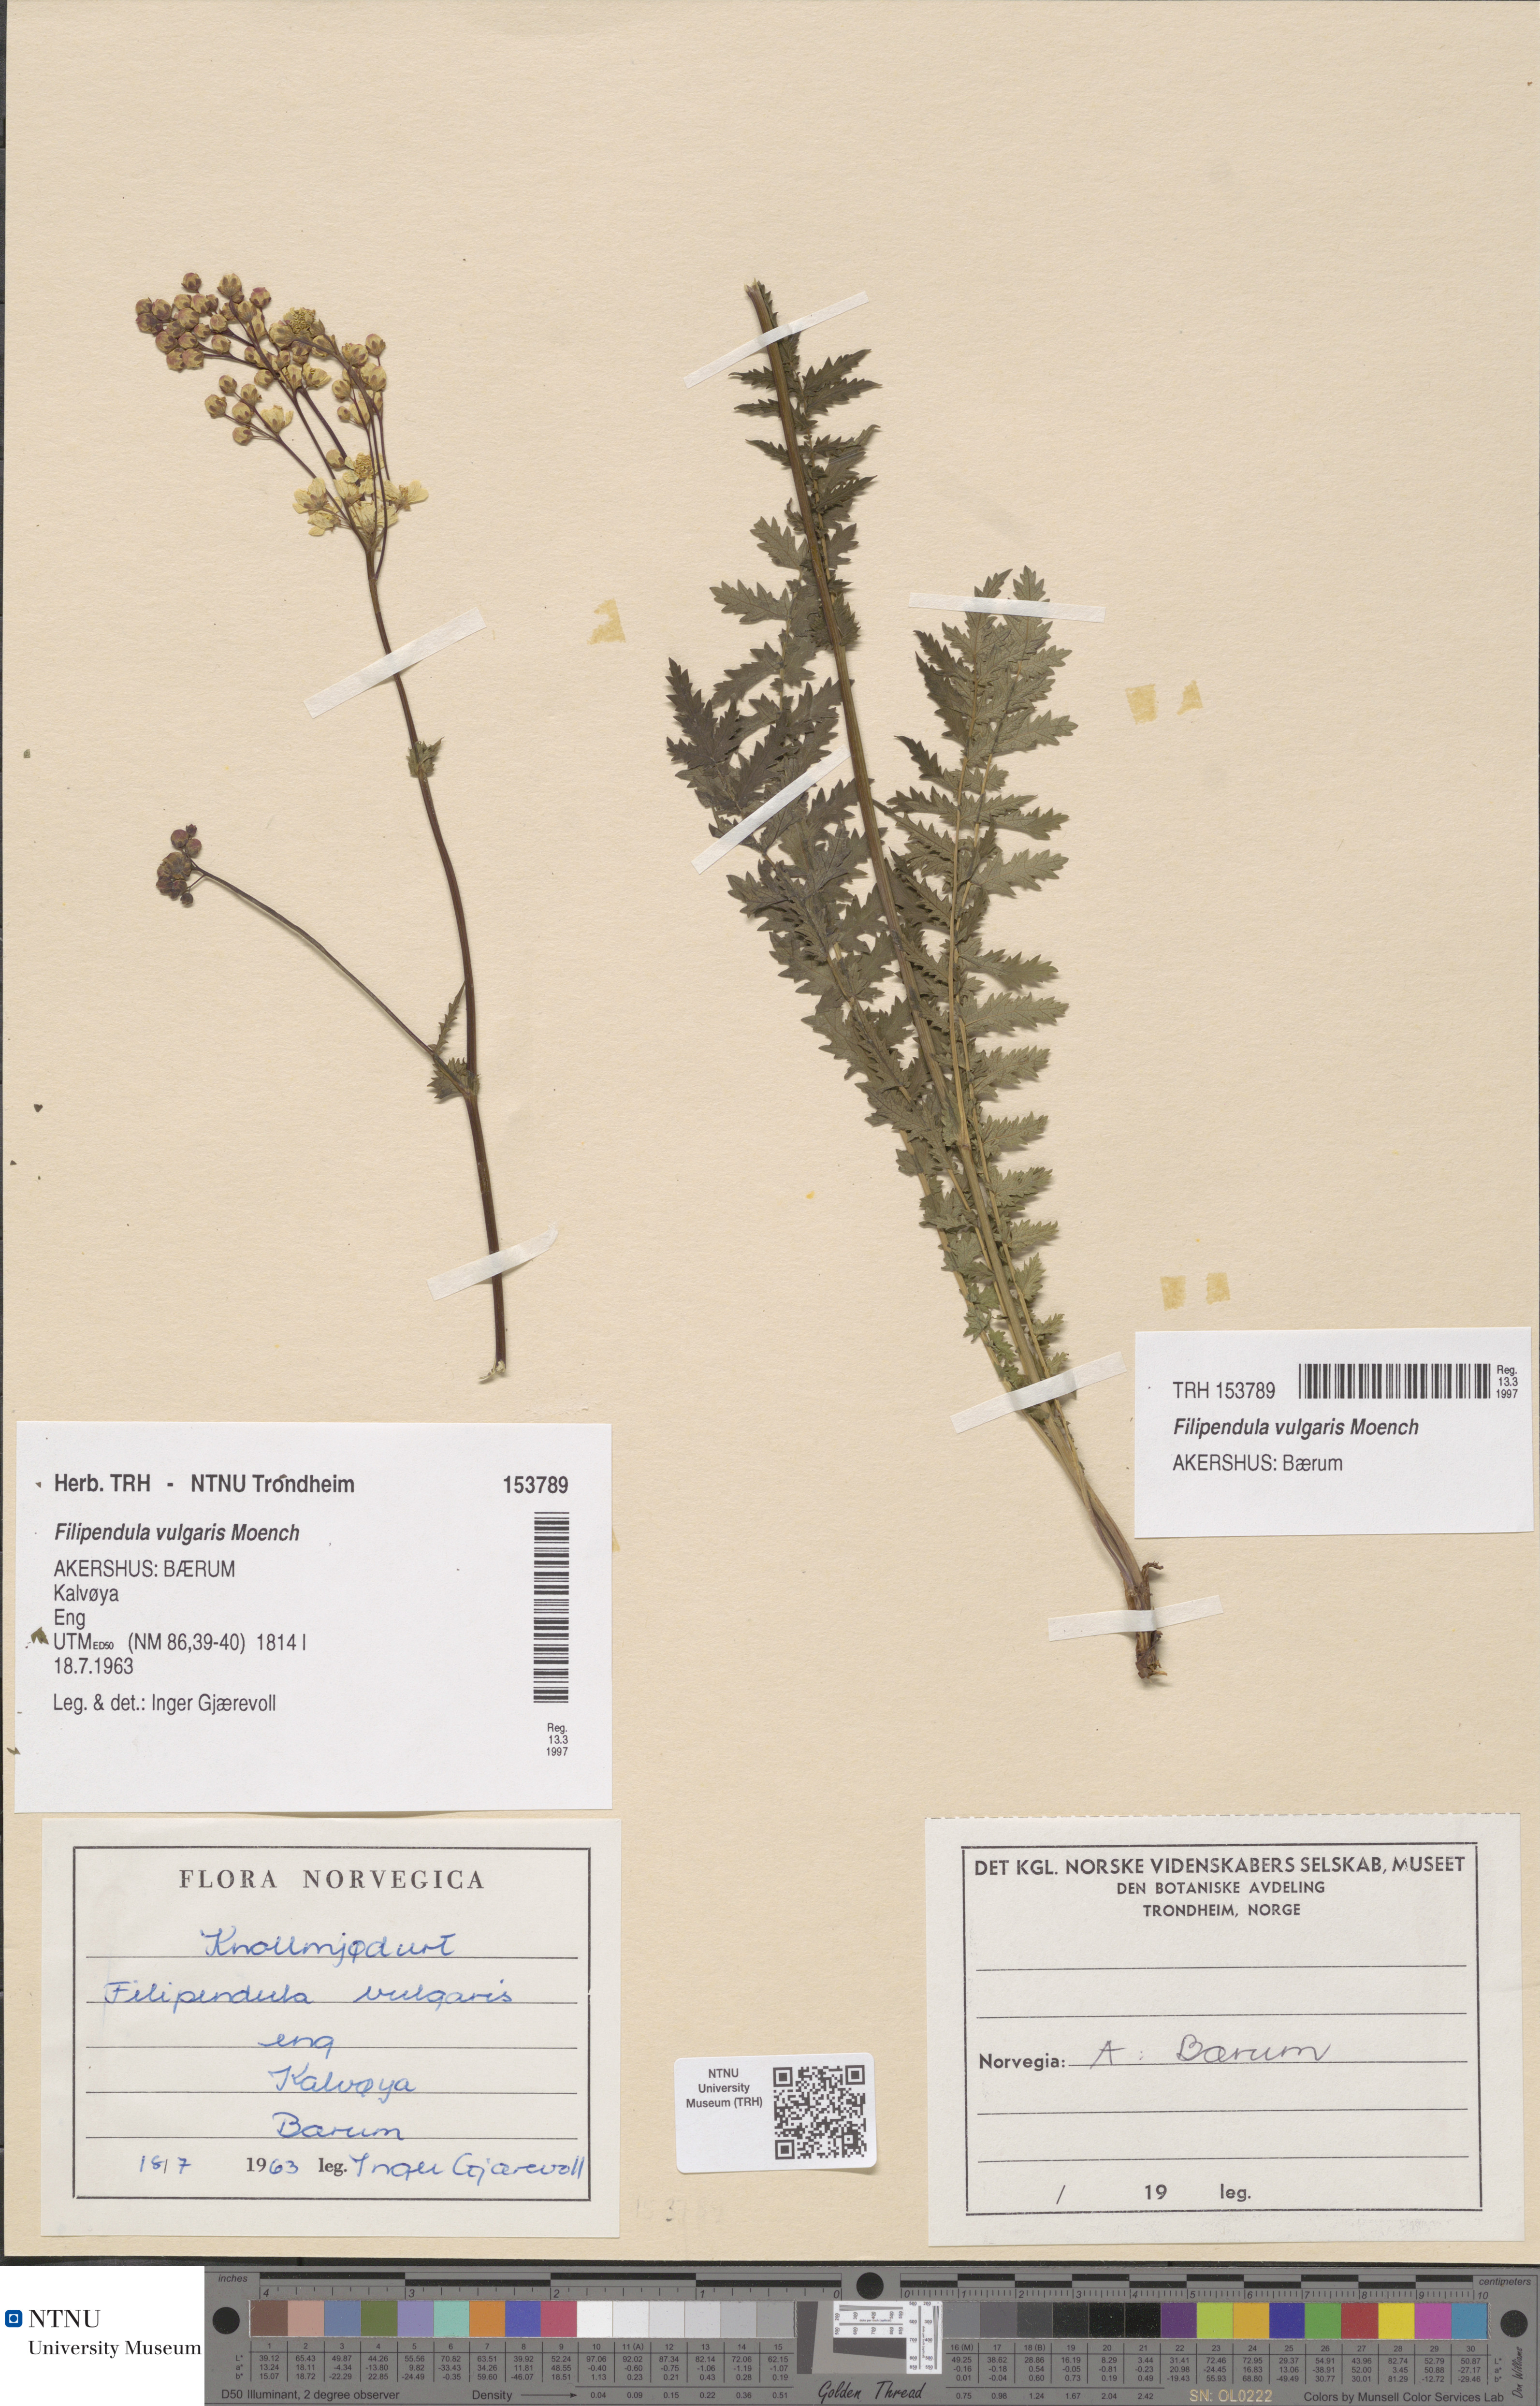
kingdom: Plantae
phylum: Tracheophyta
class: Magnoliopsida
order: Rosales
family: Rosaceae
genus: Filipendula
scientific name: Filipendula vulgaris
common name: Dropwort
